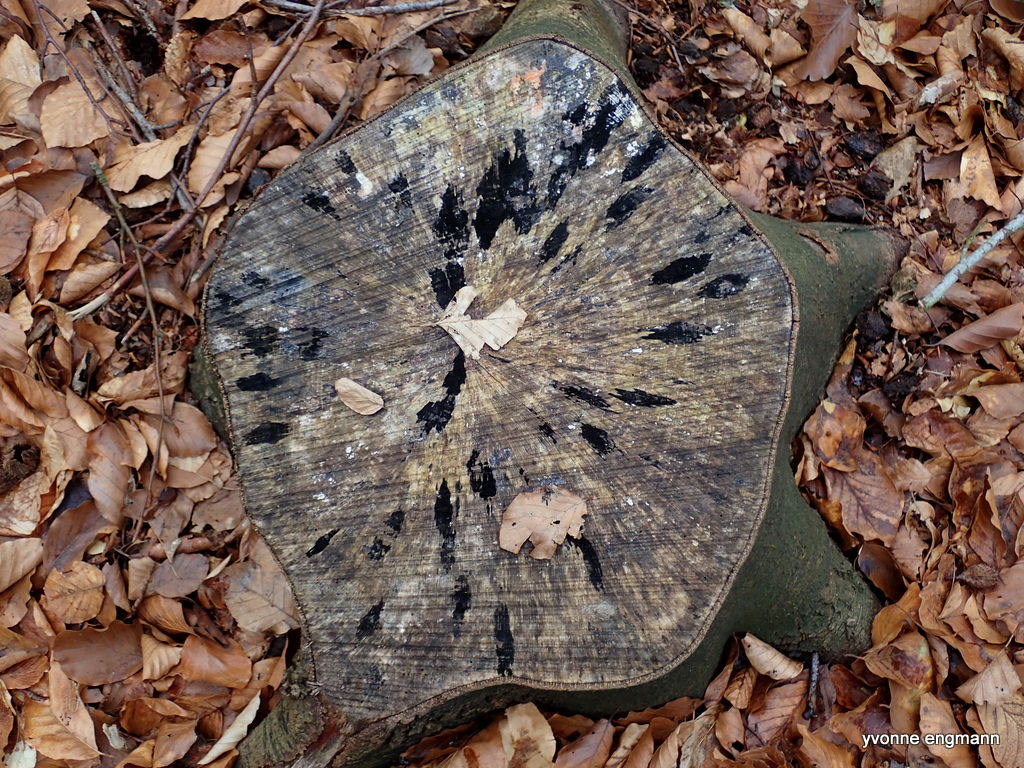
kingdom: Fungi
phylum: Ascomycota
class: Leotiomycetes
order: Helotiales
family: Helotiaceae
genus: Bispora
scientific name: Bispora pallescens
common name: måtte-snitskive
